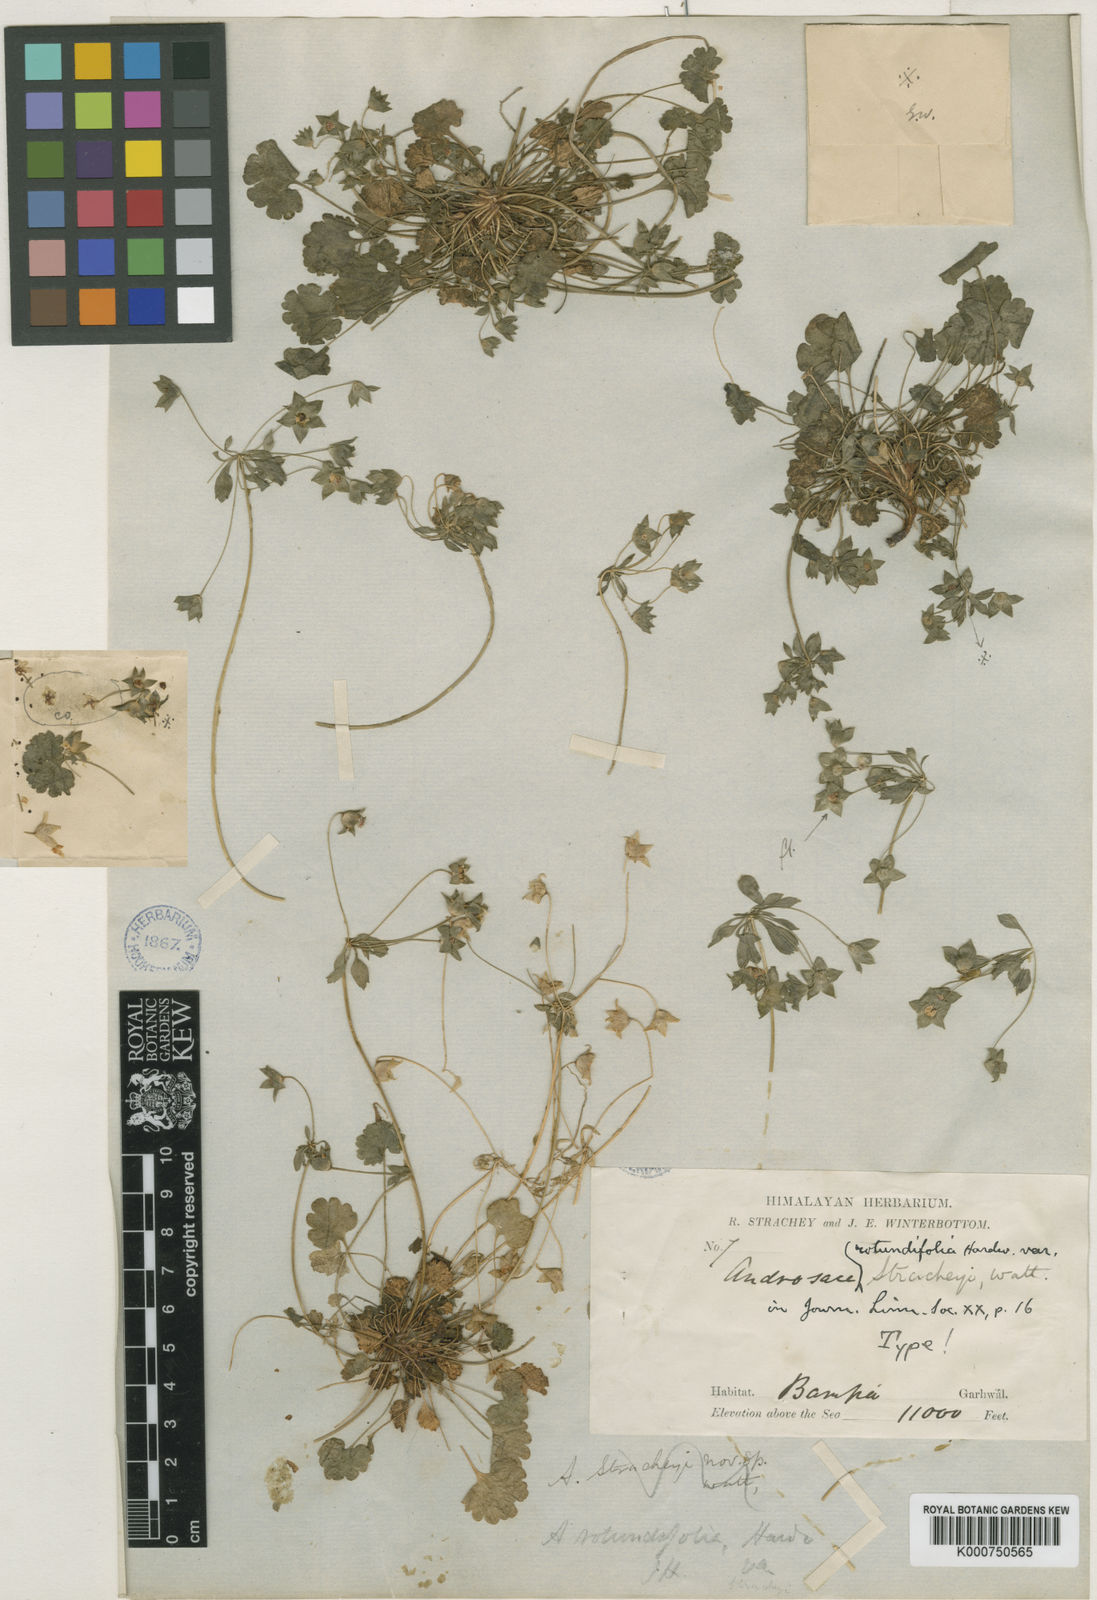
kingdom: Plantae
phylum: Tracheophyta
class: Magnoliopsida
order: Ericales
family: Primulaceae
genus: Androsace
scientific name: Androsace rotundifolia
